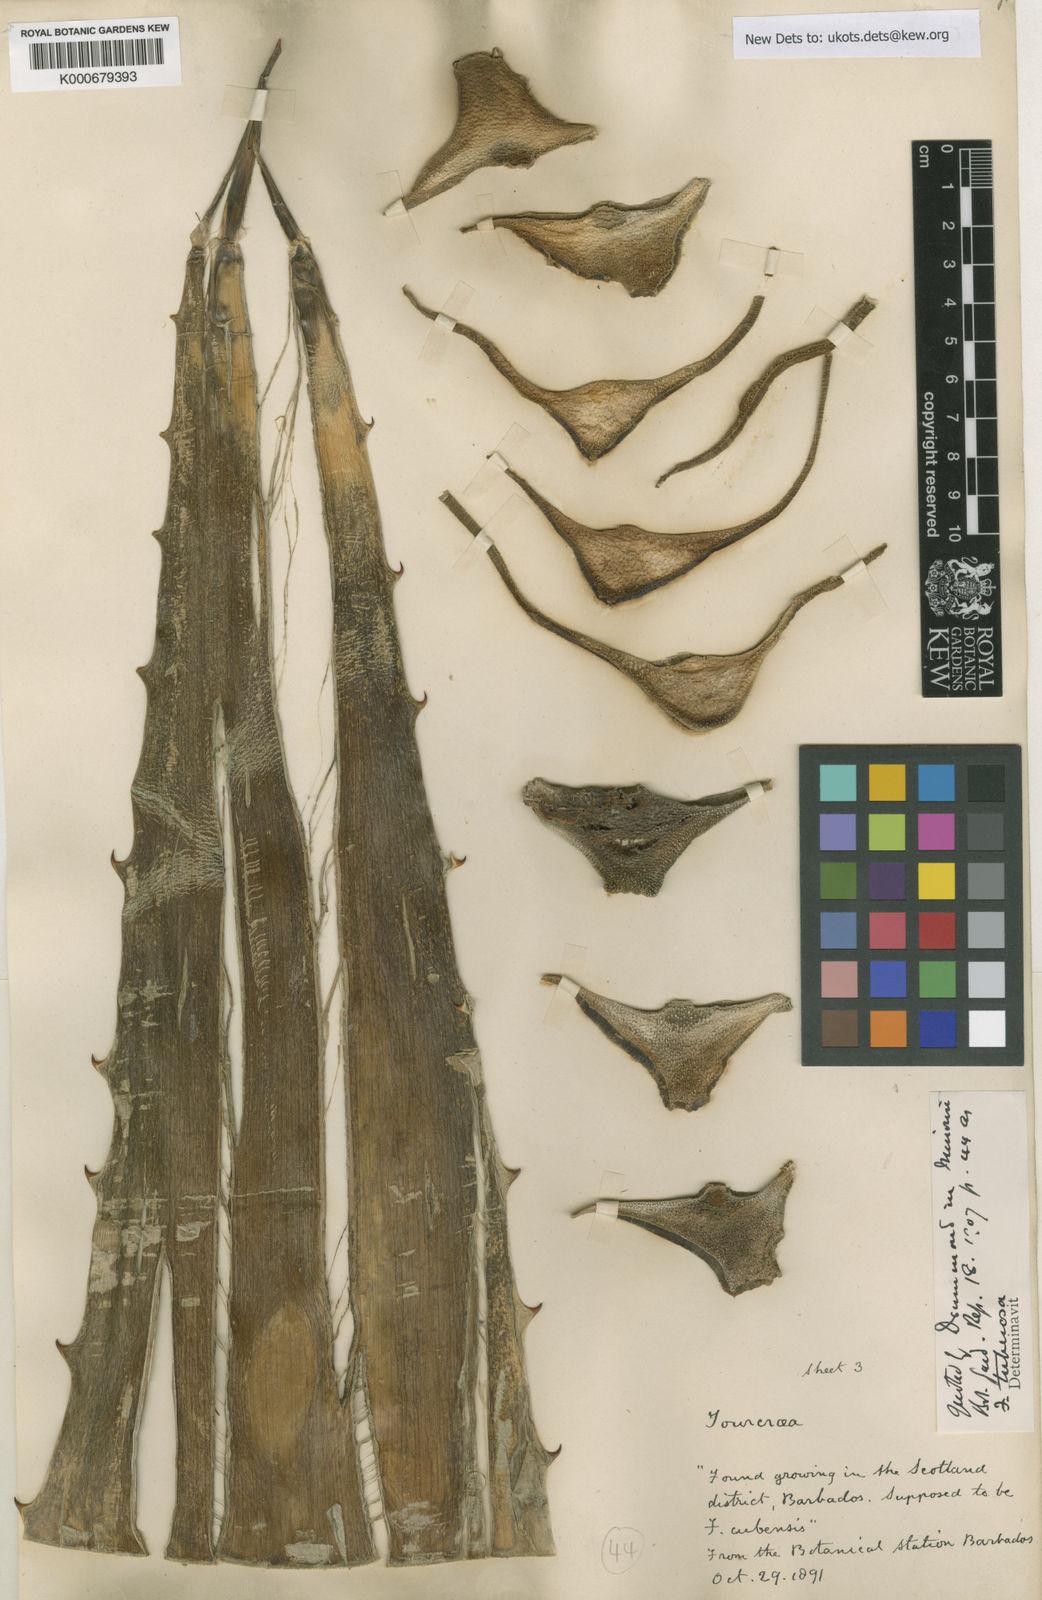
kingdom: Plantae
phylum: Tracheophyta
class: Liliopsida
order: Asparagales
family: Asparagaceae
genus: Furcraea
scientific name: Furcraea foetida
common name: Mauritius hemp
